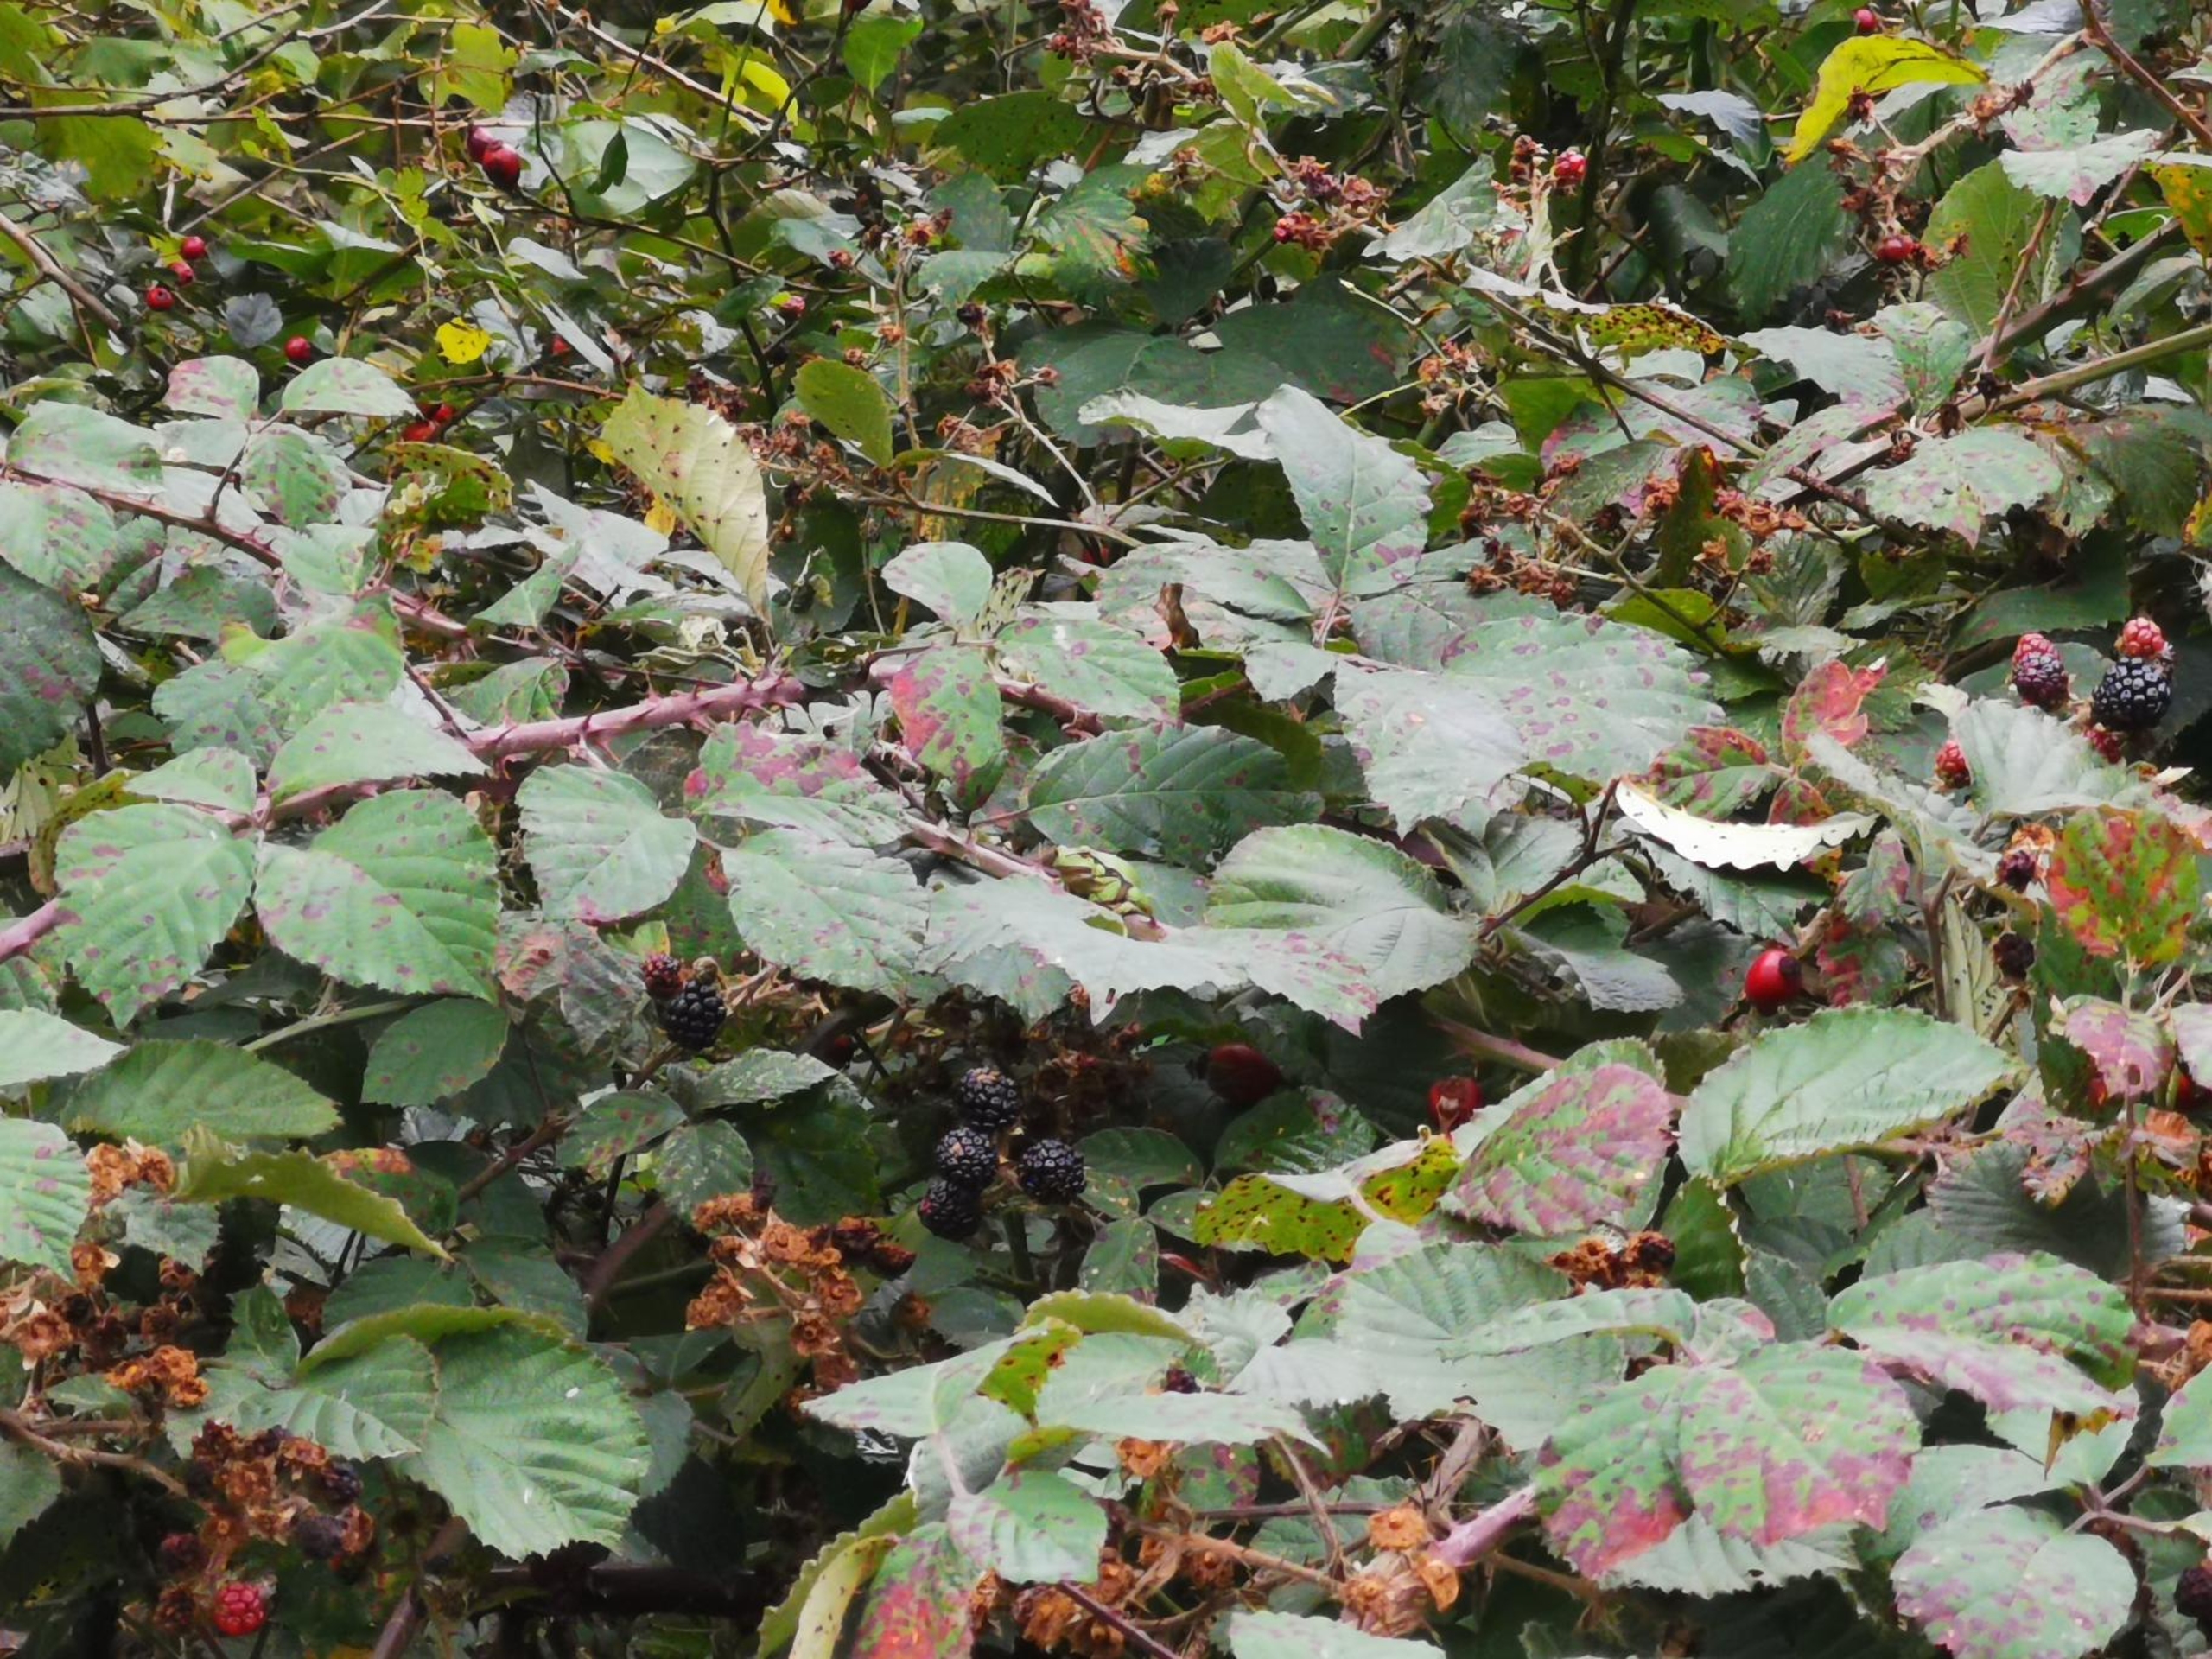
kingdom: Animalia
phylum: Chordata
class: Amphibia
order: Anura
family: Hylidae
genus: Hyla
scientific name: Hyla arborea
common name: Løvfrø
